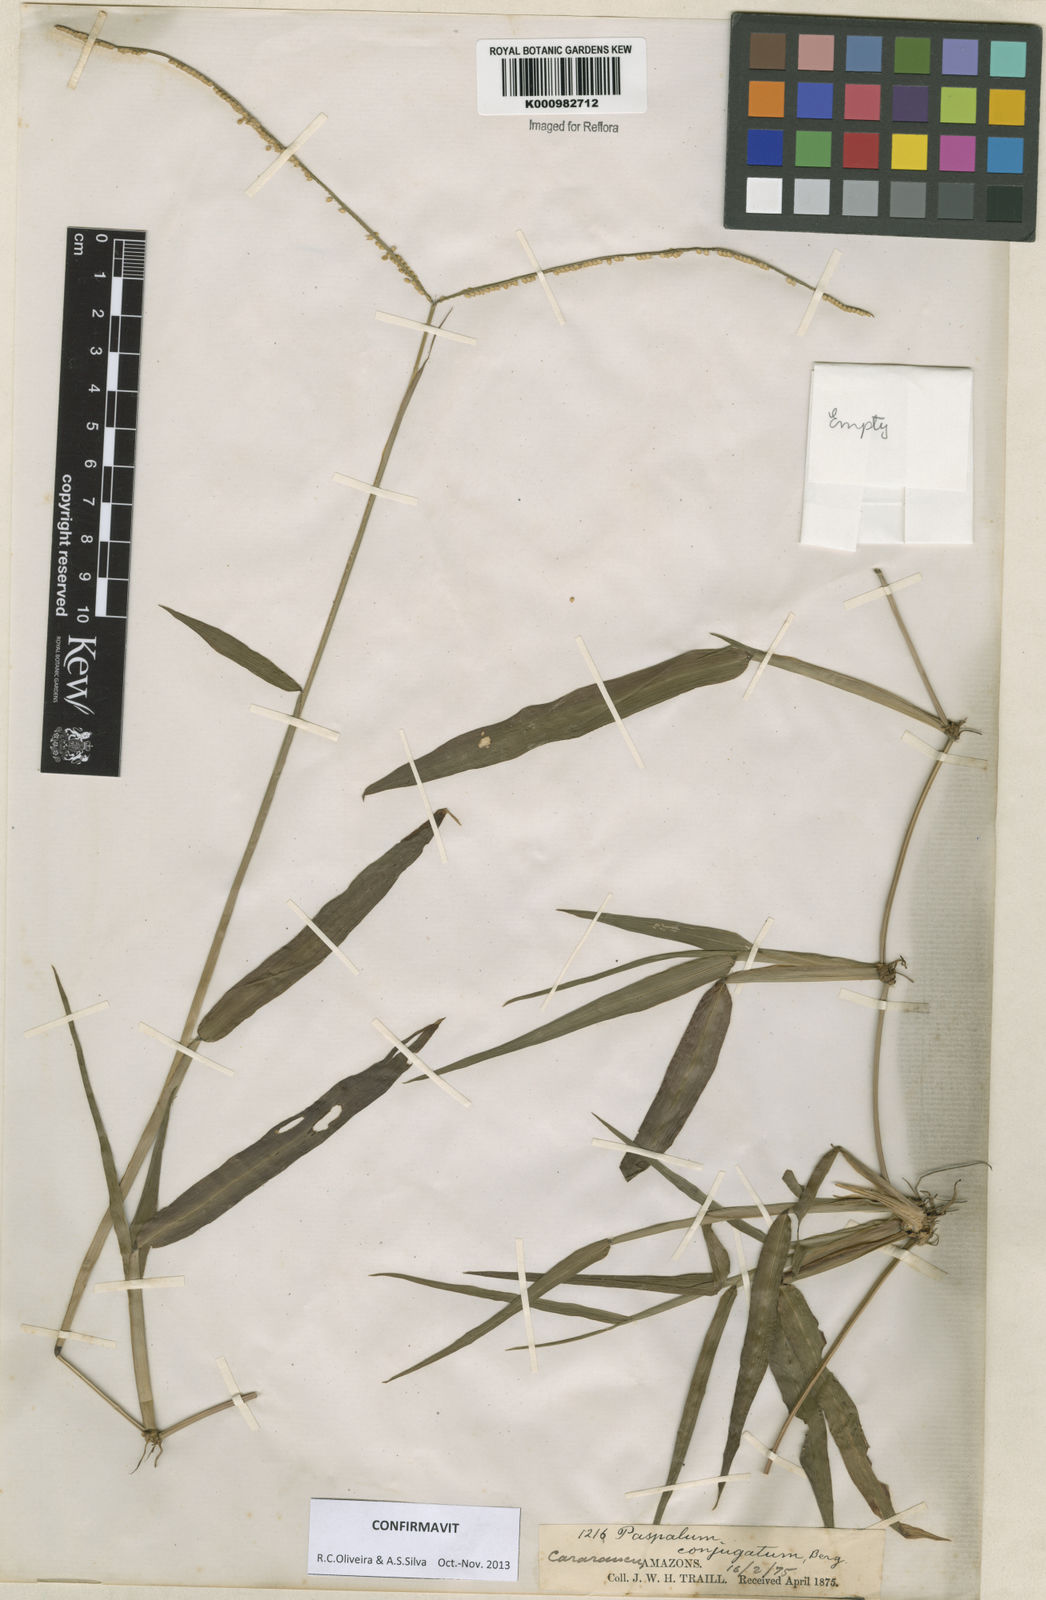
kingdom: Plantae
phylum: Tracheophyta
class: Liliopsida
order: Poales
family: Poaceae
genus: Paspalum
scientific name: Paspalum conjugatum
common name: Hilograss
